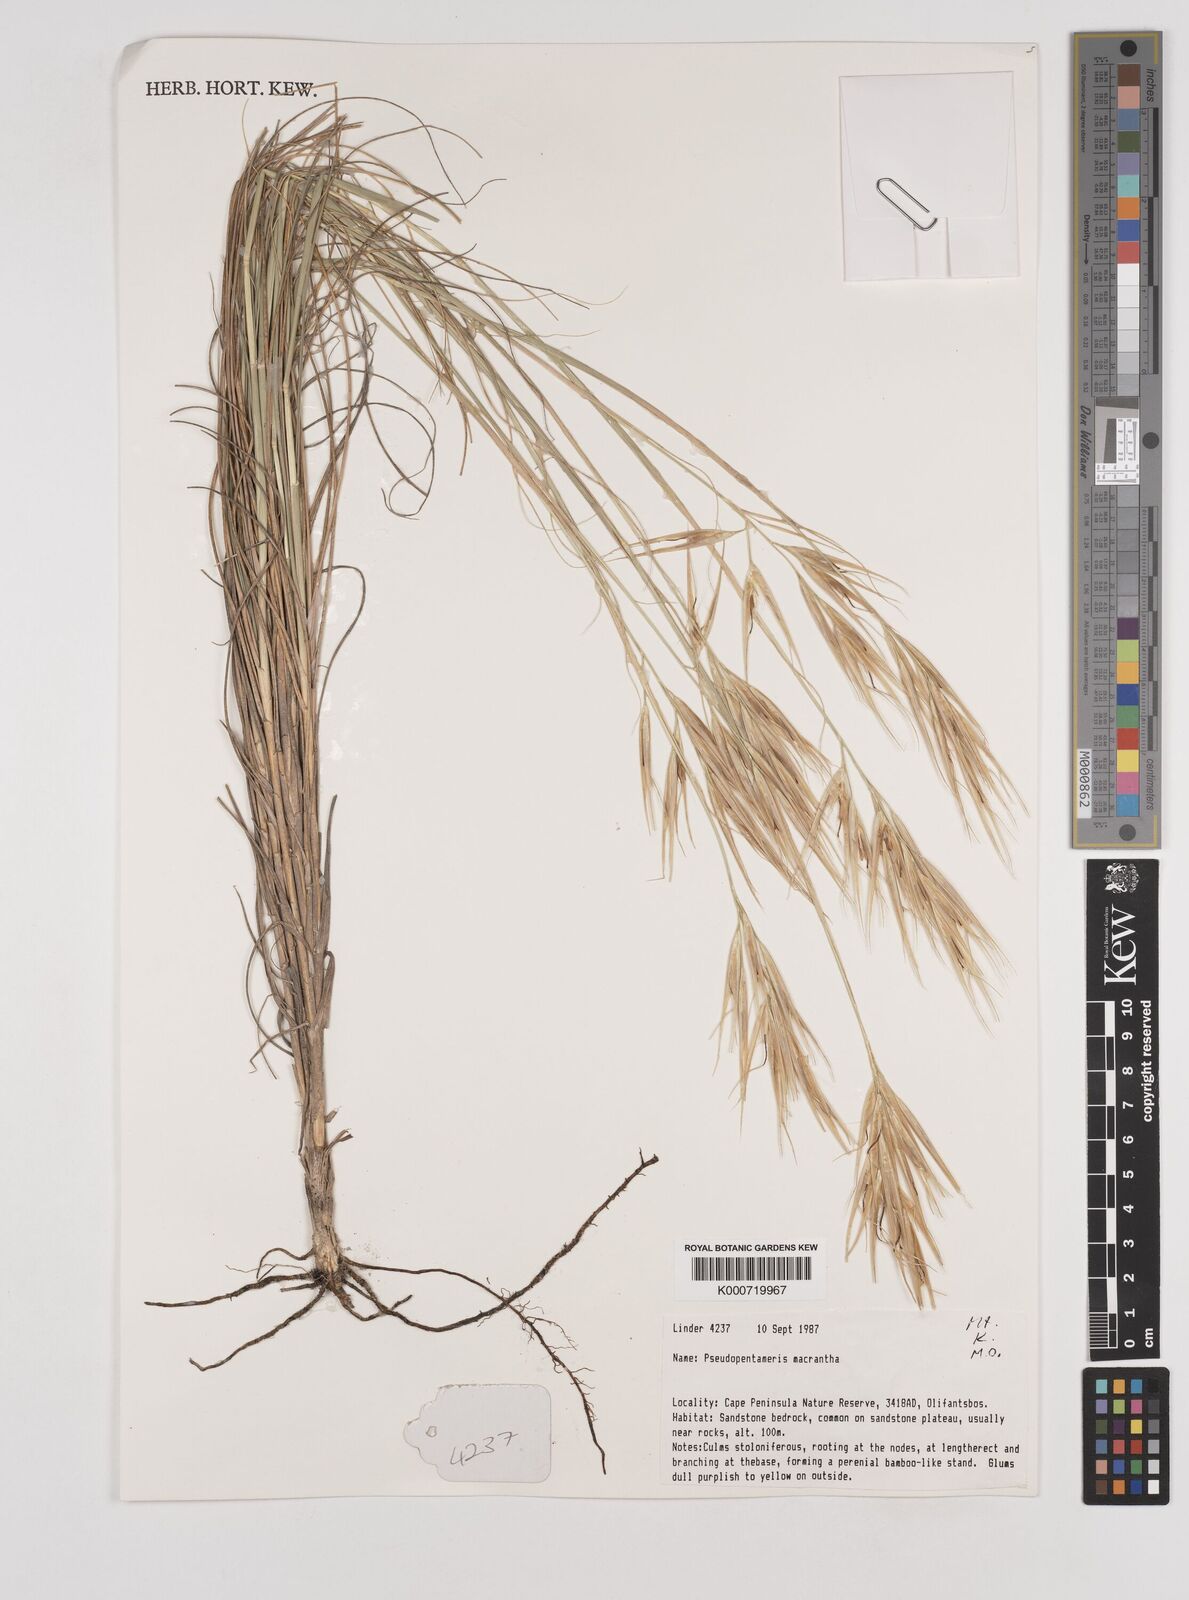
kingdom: Plantae
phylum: Tracheophyta
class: Liliopsida
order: Poales
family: Poaceae
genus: Pseudopentameris
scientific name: Pseudopentameris macrantha
